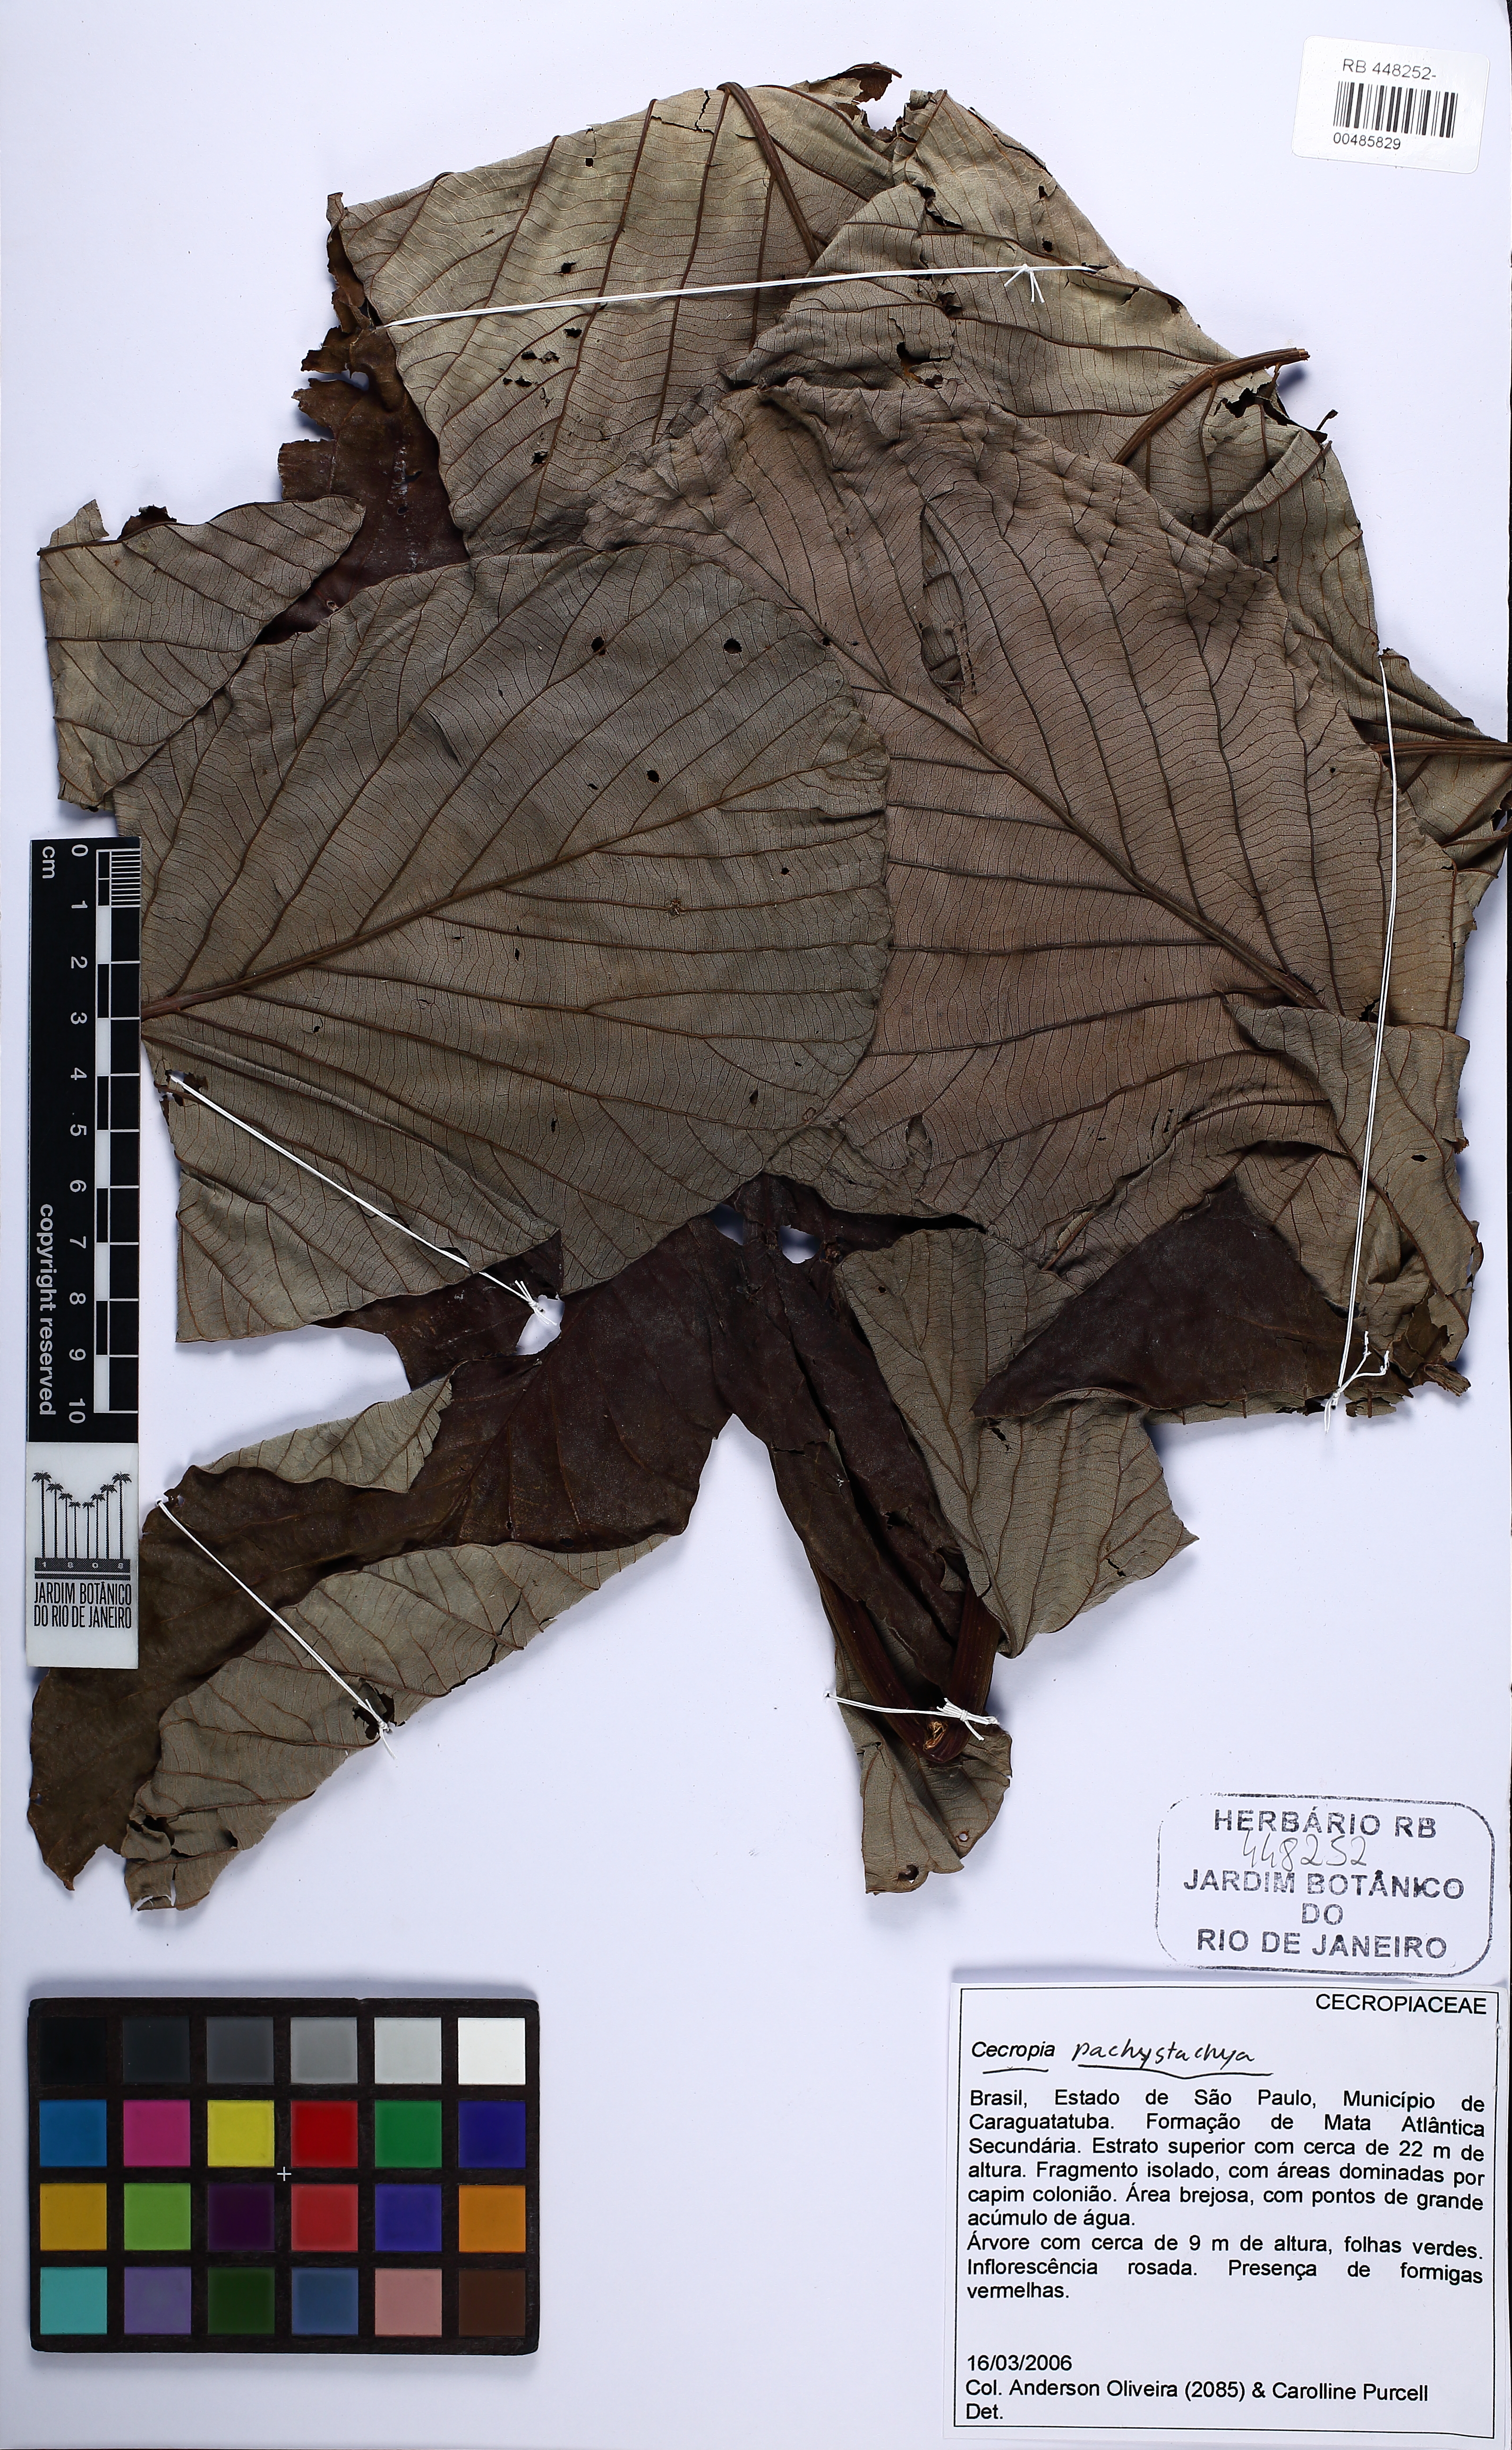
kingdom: Plantae
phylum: Tracheophyta
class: Magnoliopsida
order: Rosales
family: Urticaceae
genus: Cecropia
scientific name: Cecropia pachystachya
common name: Ambay pumpwood
